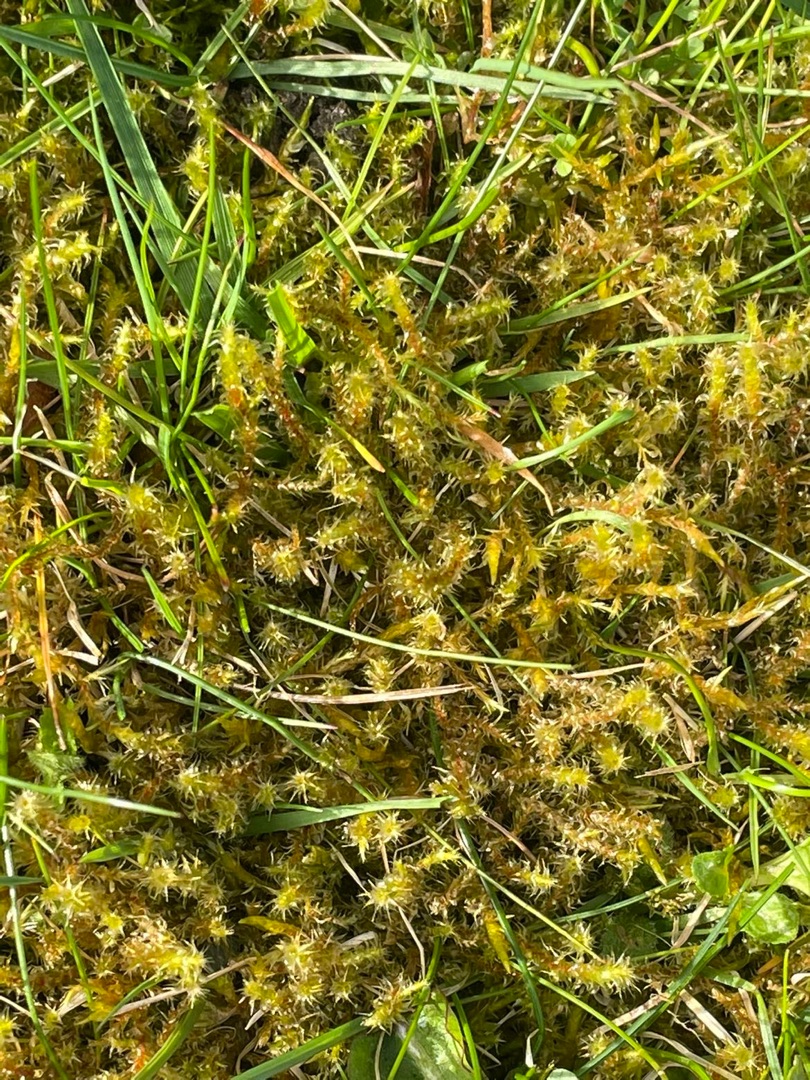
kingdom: Plantae
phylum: Bryophyta
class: Bryopsida
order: Hypnales
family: Hylocomiaceae
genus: Rhytidiadelphus
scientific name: Rhytidiadelphus squarrosus
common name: Plæne-kransemos
